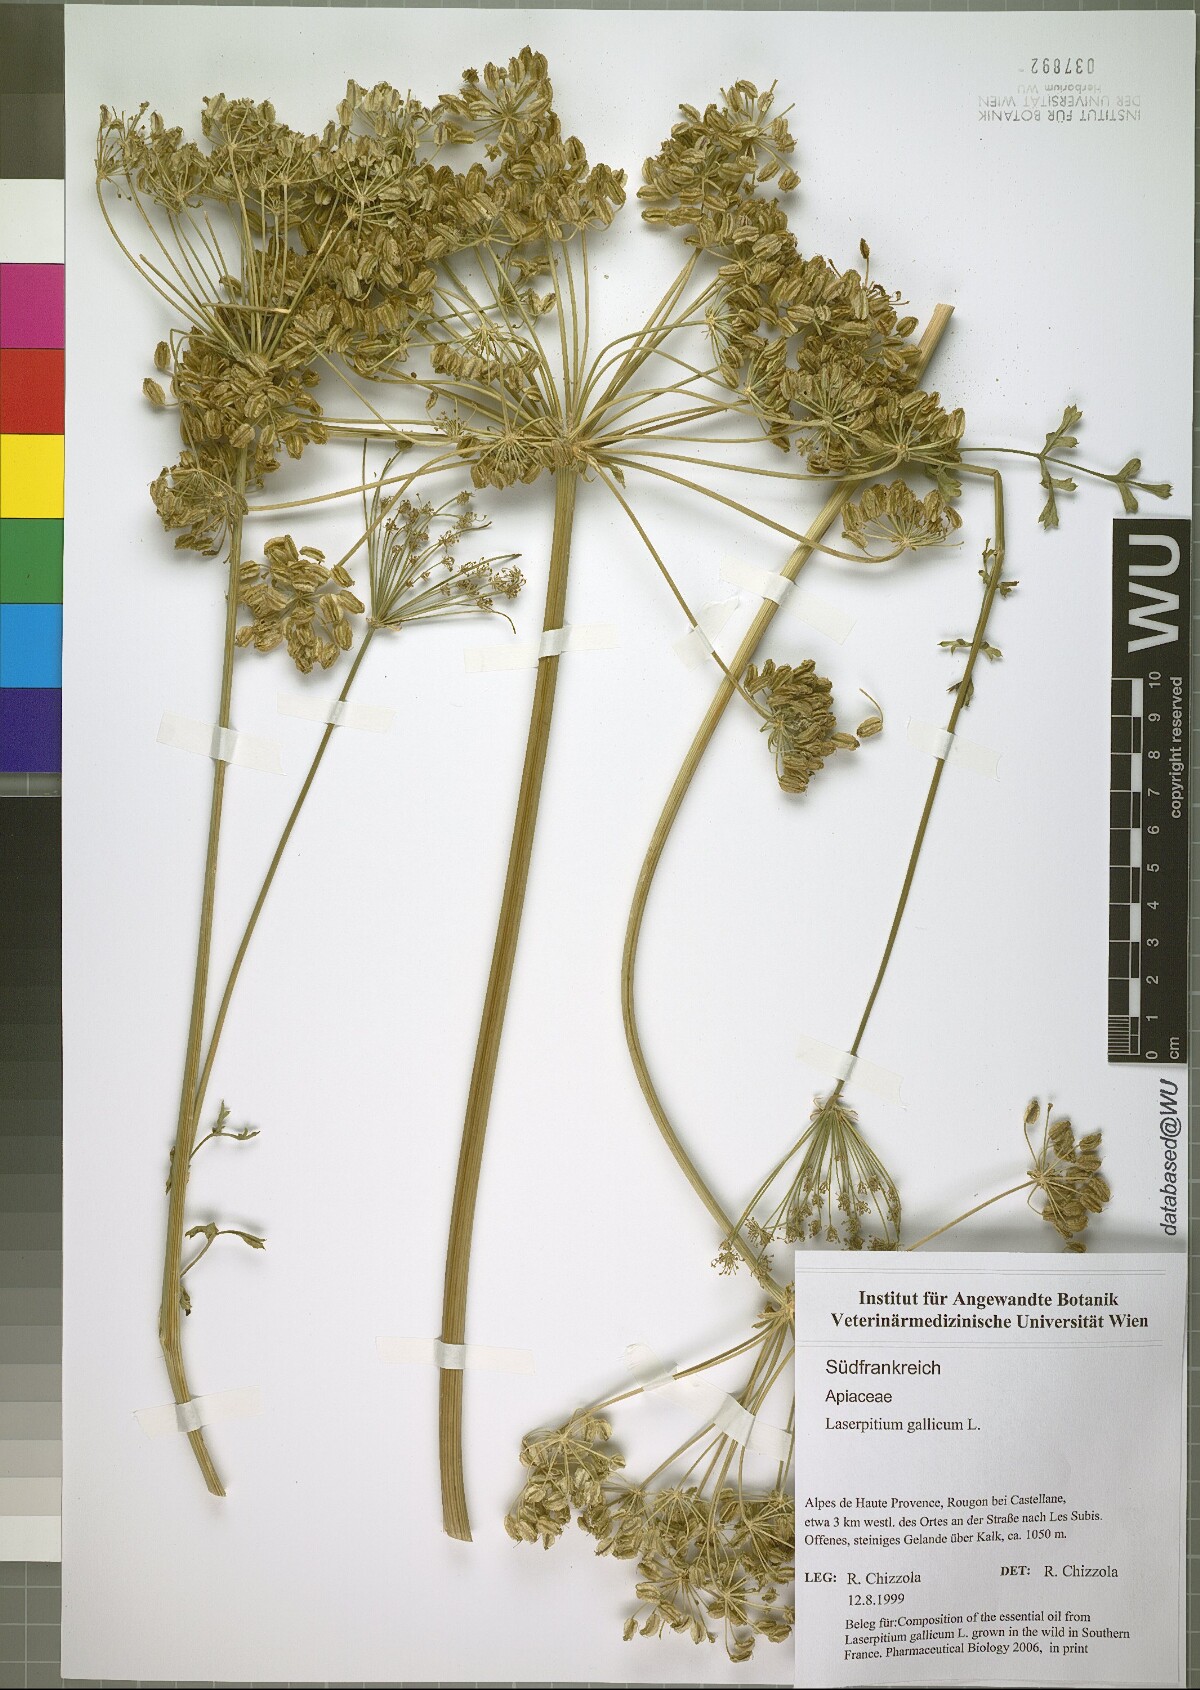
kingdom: Plantae
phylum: Tracheophyta
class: Magnoliopsida
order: Apiales
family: Apiaceae
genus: Laserpitium
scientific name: Laserpitium gallicum
